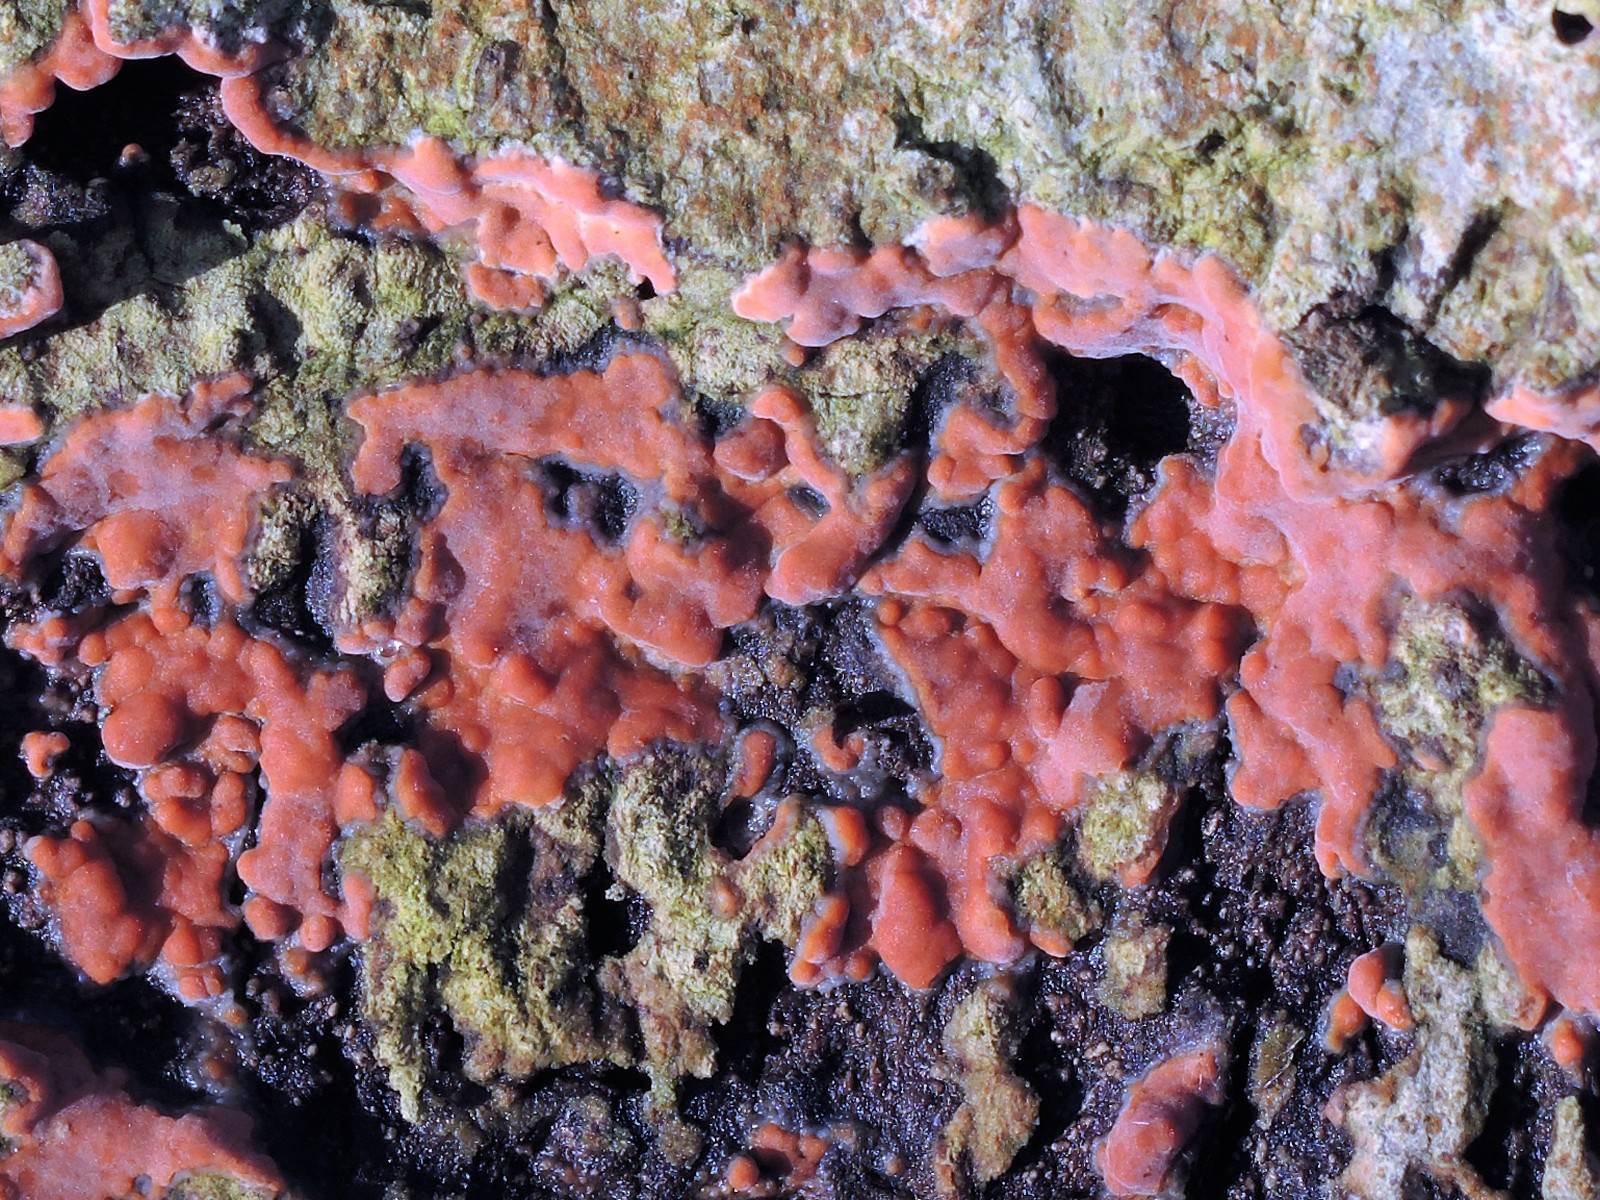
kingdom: Fungi
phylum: Basidiomycota
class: Agaricomycetes
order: Russulales
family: Peniophoraceae
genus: Peniophora
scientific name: Peniophora incarnata
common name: laksefarvet voksskind
